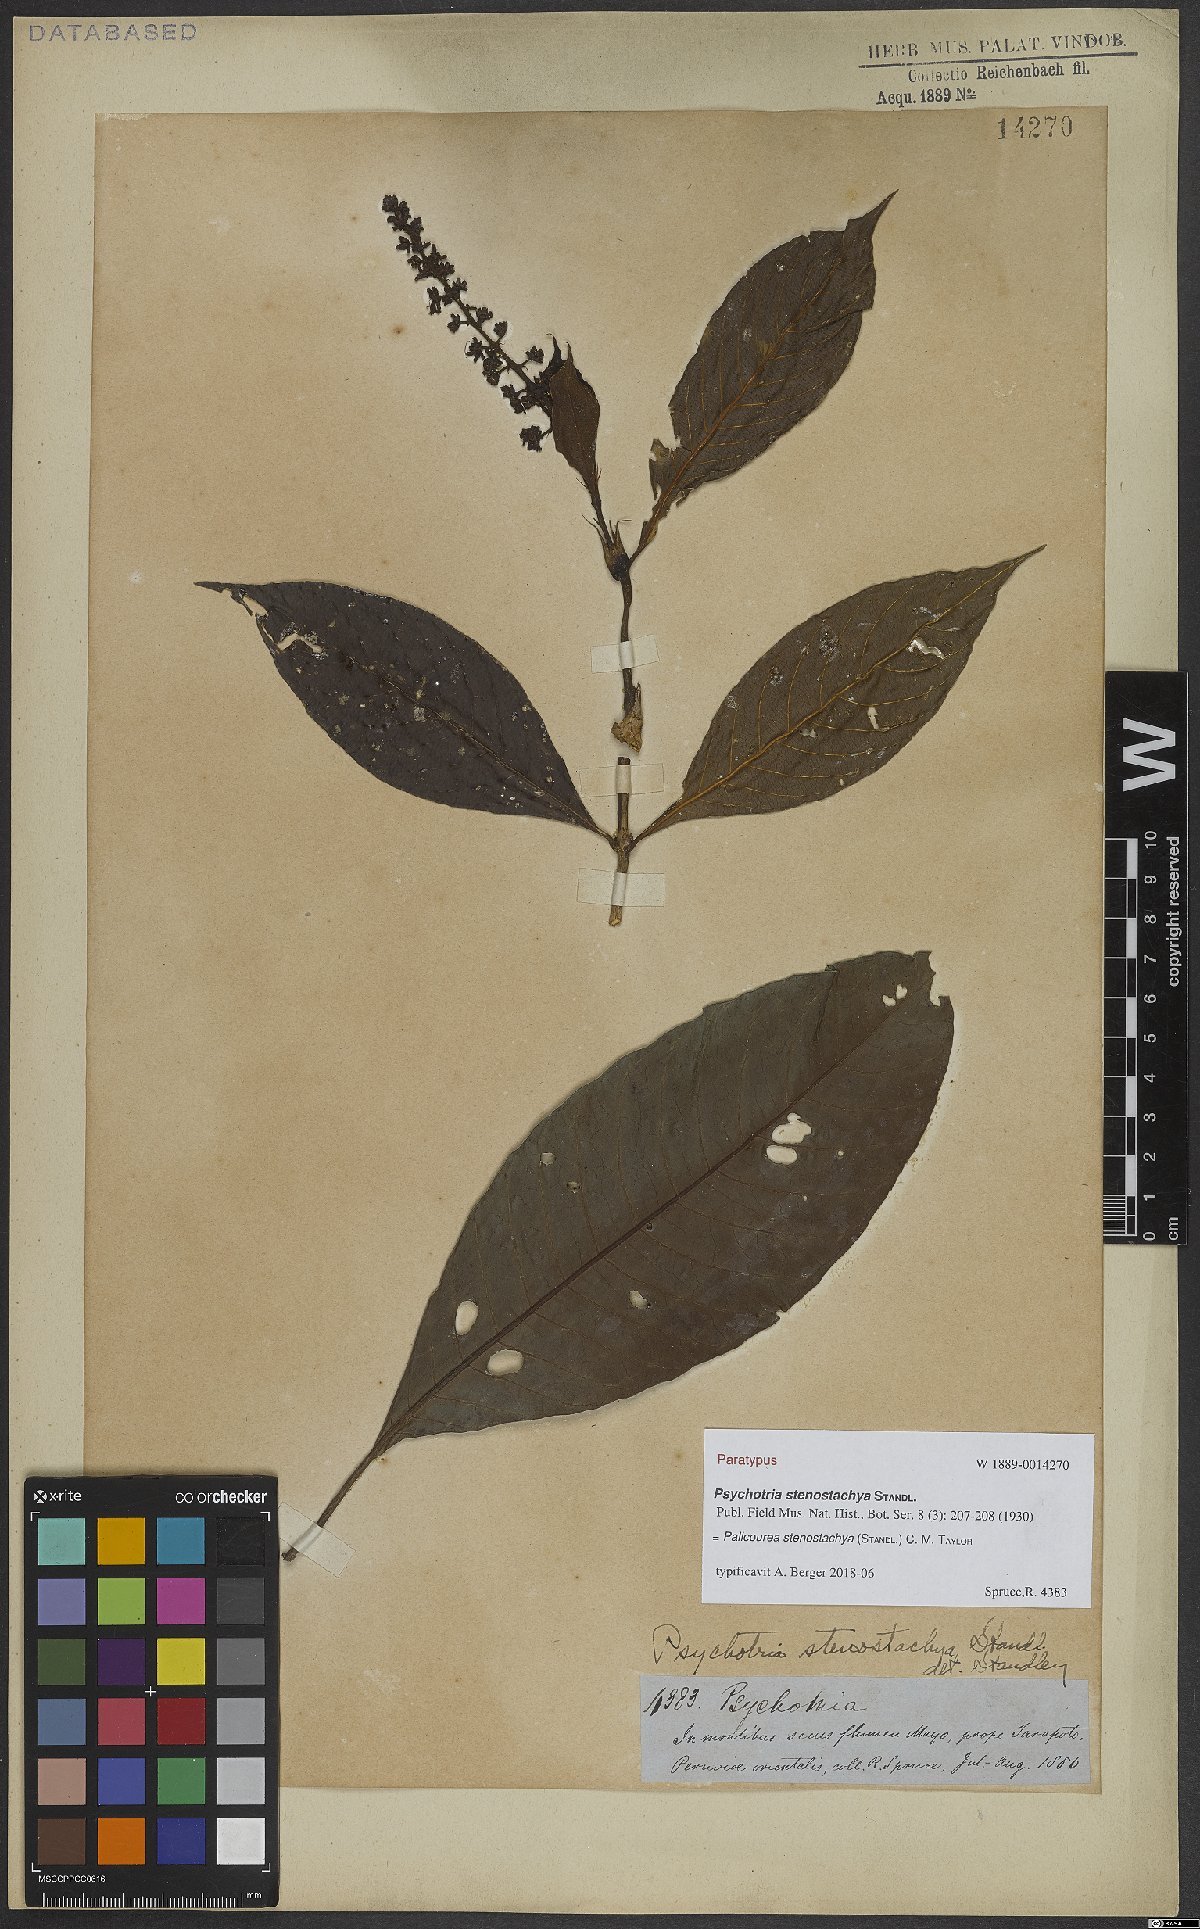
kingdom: Plantae
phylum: Tracheophyta
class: Magnoliopsida
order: Gentianales
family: Rubiaceae
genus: Palicourea
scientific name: Palicourea stenostachya
